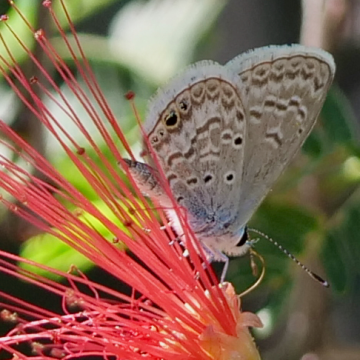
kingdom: Animalia
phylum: Arthropoda
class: Insecta
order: Lepidoptera
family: Lycaenidae
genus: Hemiargus
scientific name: Hemiargus ceraunus
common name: Ceraunus Blue
